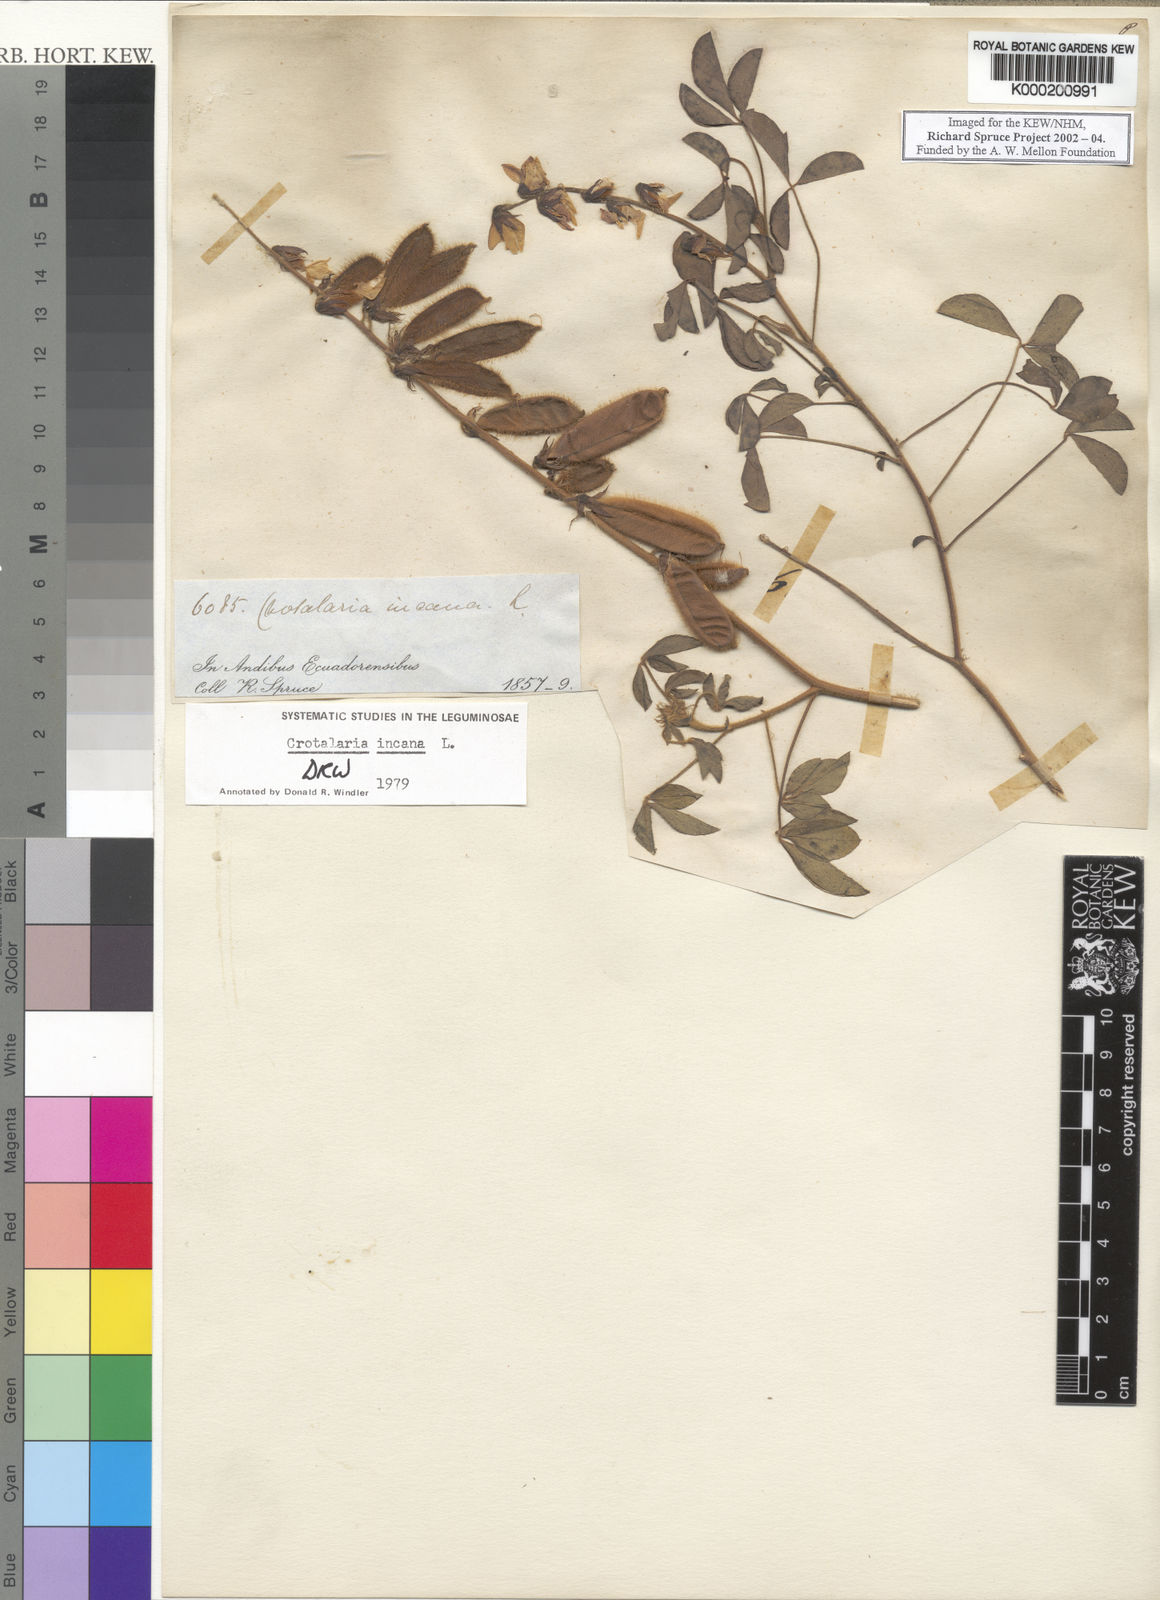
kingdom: Plantae
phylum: Tracheophyta
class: Magnoliopsida
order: Fabales
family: Fabaceae
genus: Crotalaria
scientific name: Crotalaria incana
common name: Shakeshake
